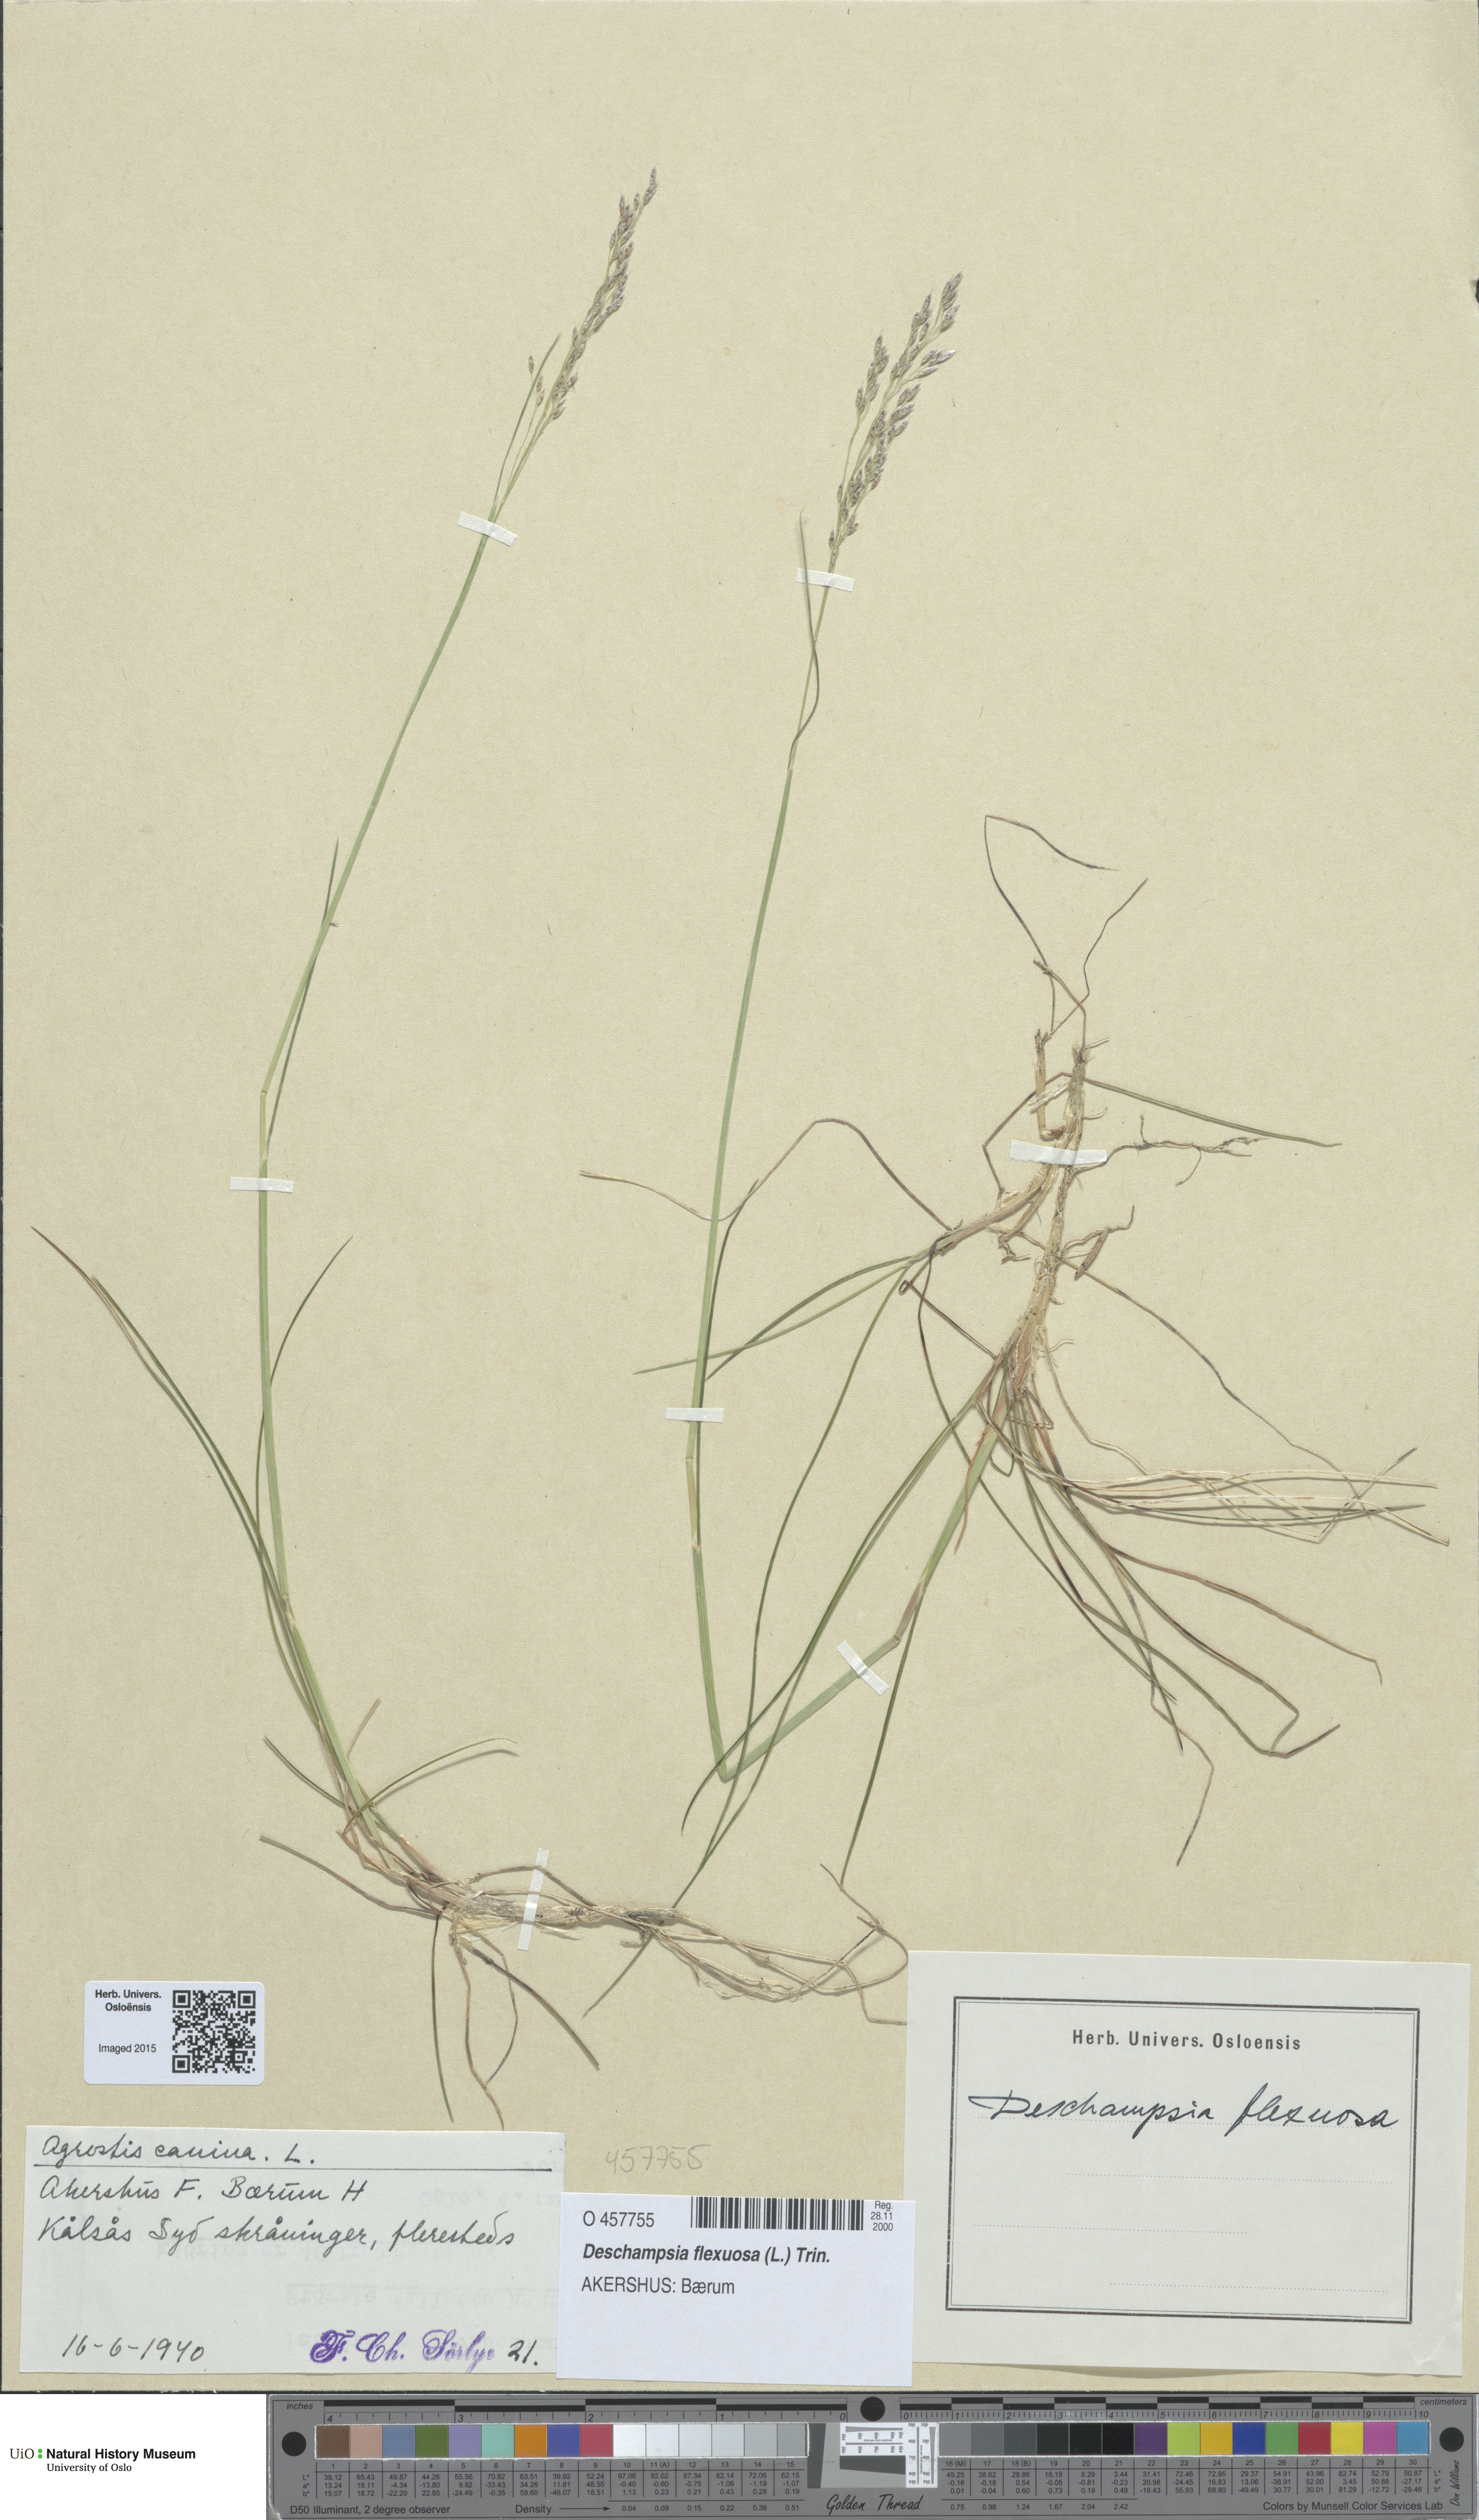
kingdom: Plantae
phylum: Tracheophyta
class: Liliopsida
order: Poales
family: Poaceae
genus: Avenella
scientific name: Avenella flexuosa
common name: Wavy hairgrass
